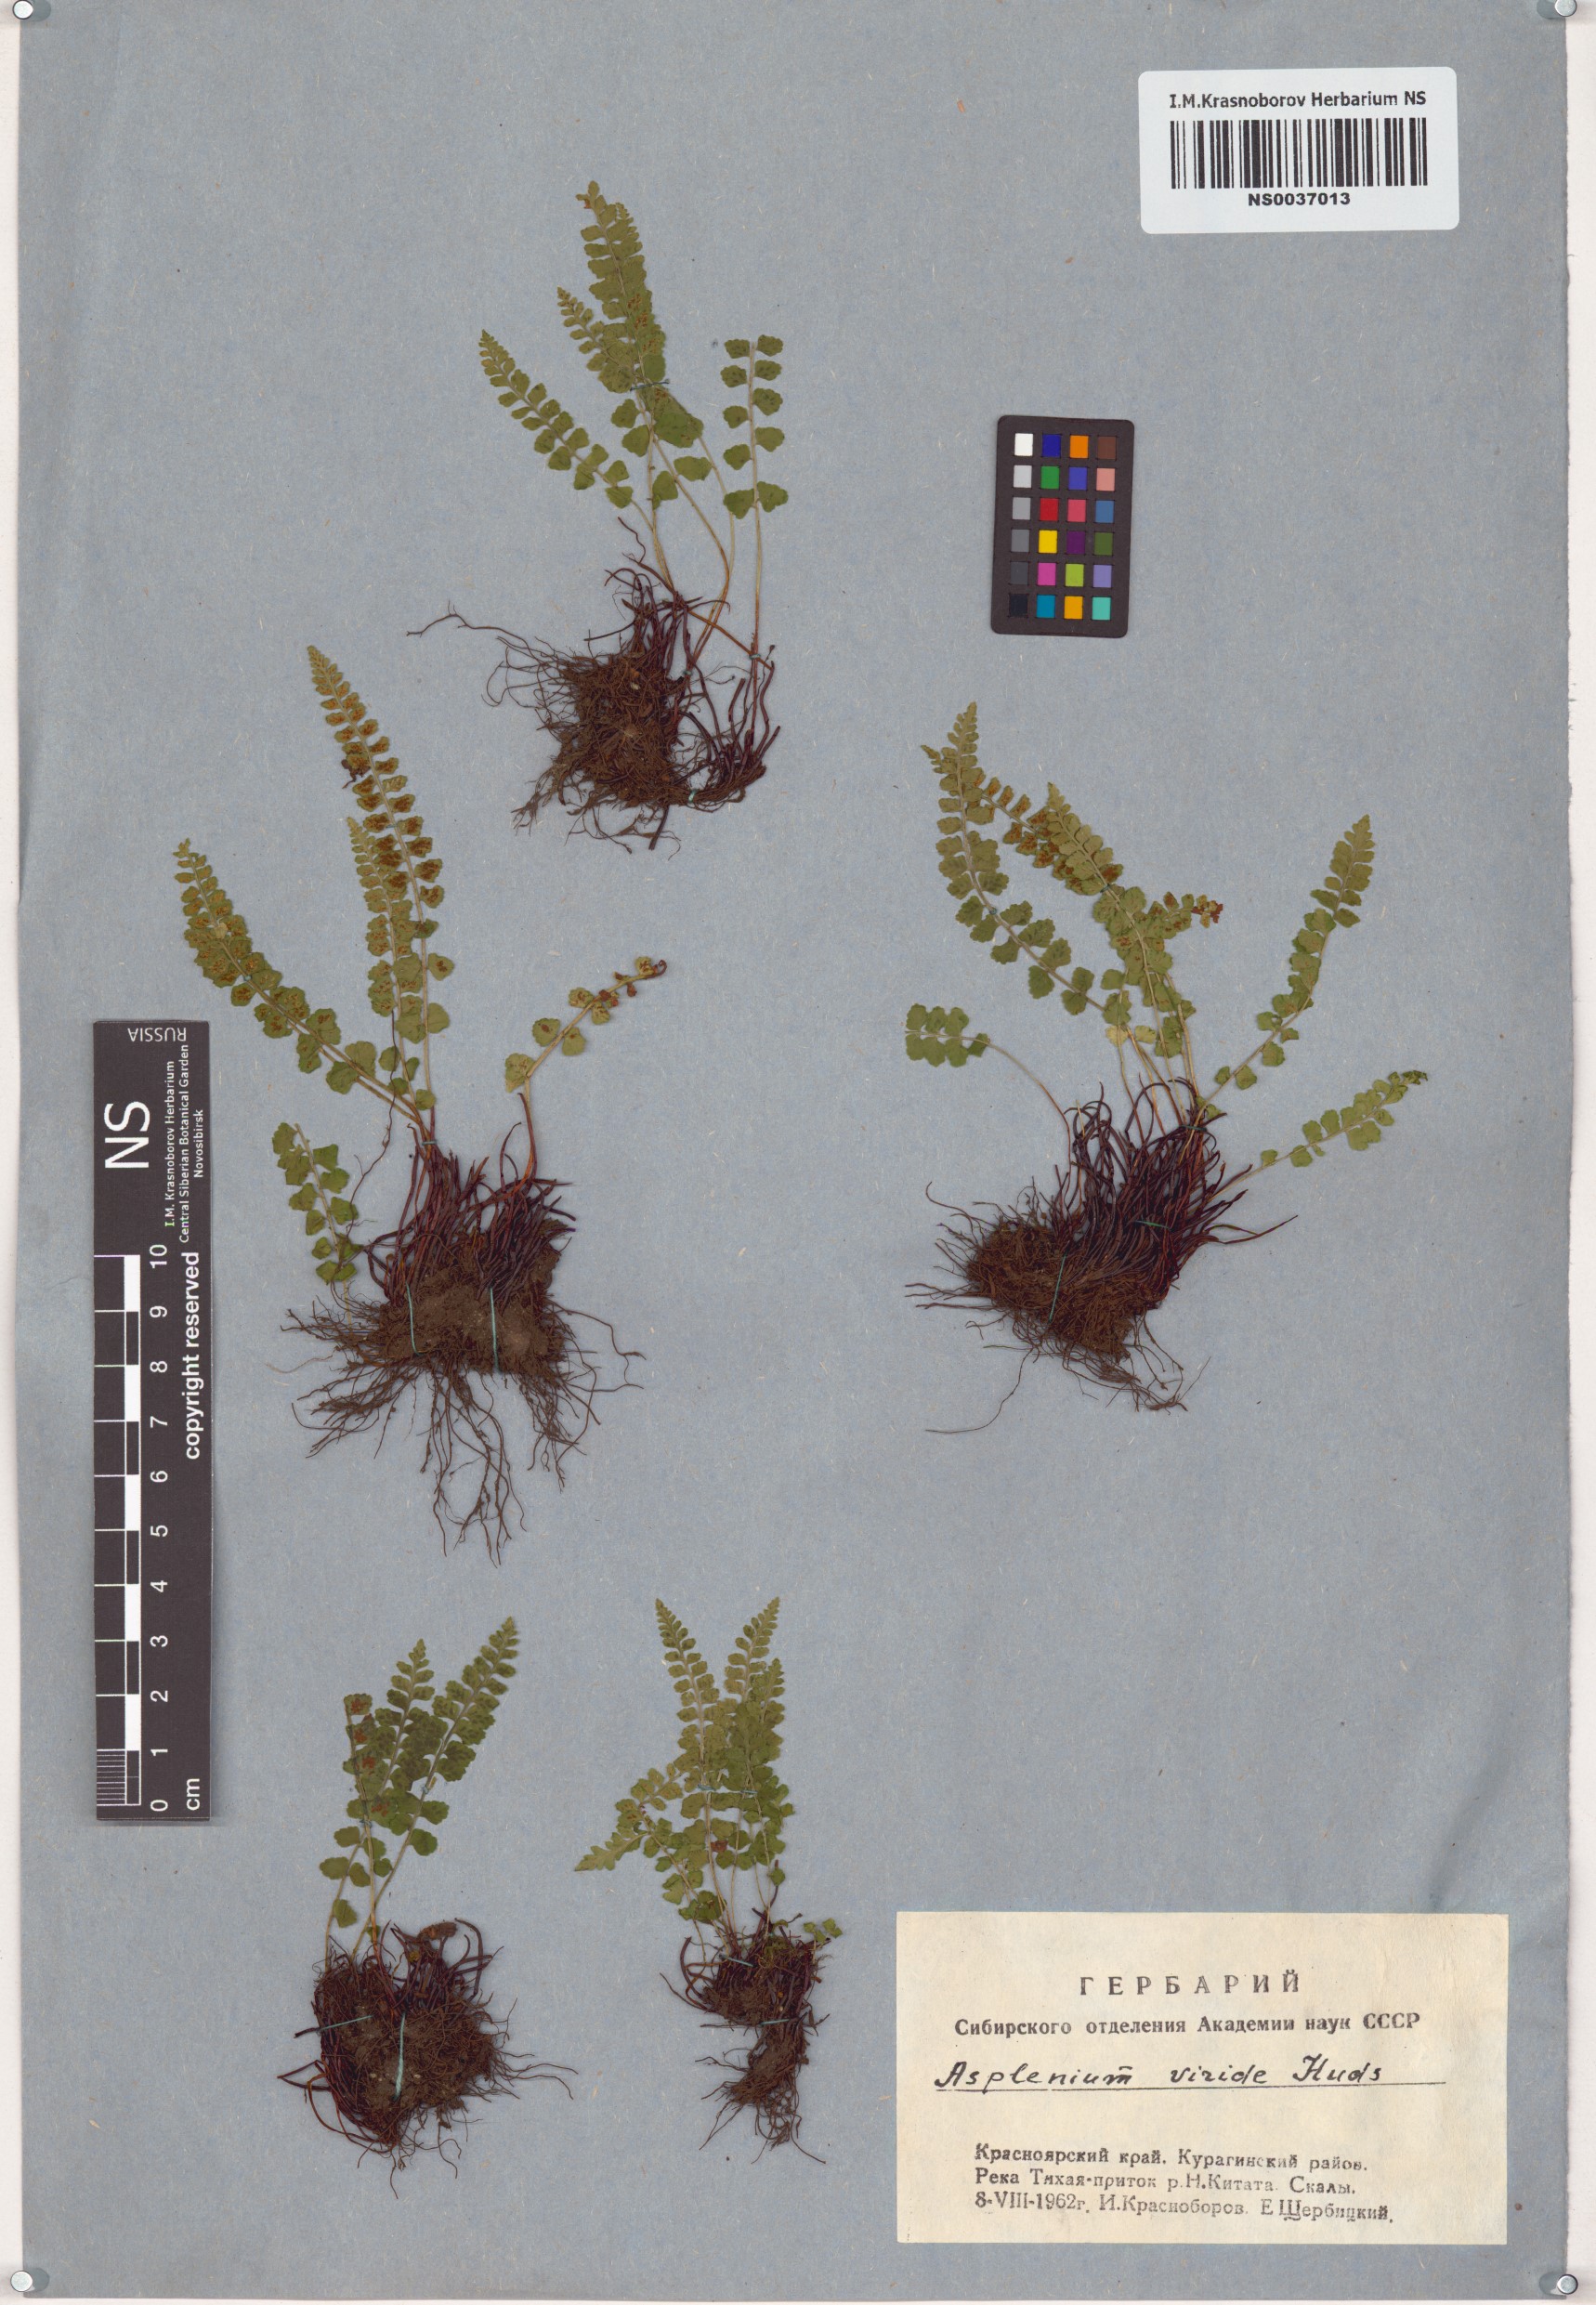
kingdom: Plantae
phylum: Tracheophyta
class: Polypodiopsida
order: Polypodiales
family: Aspleniaceae
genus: Asplenium
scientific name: Asplenium viride
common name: Green spleenwort
